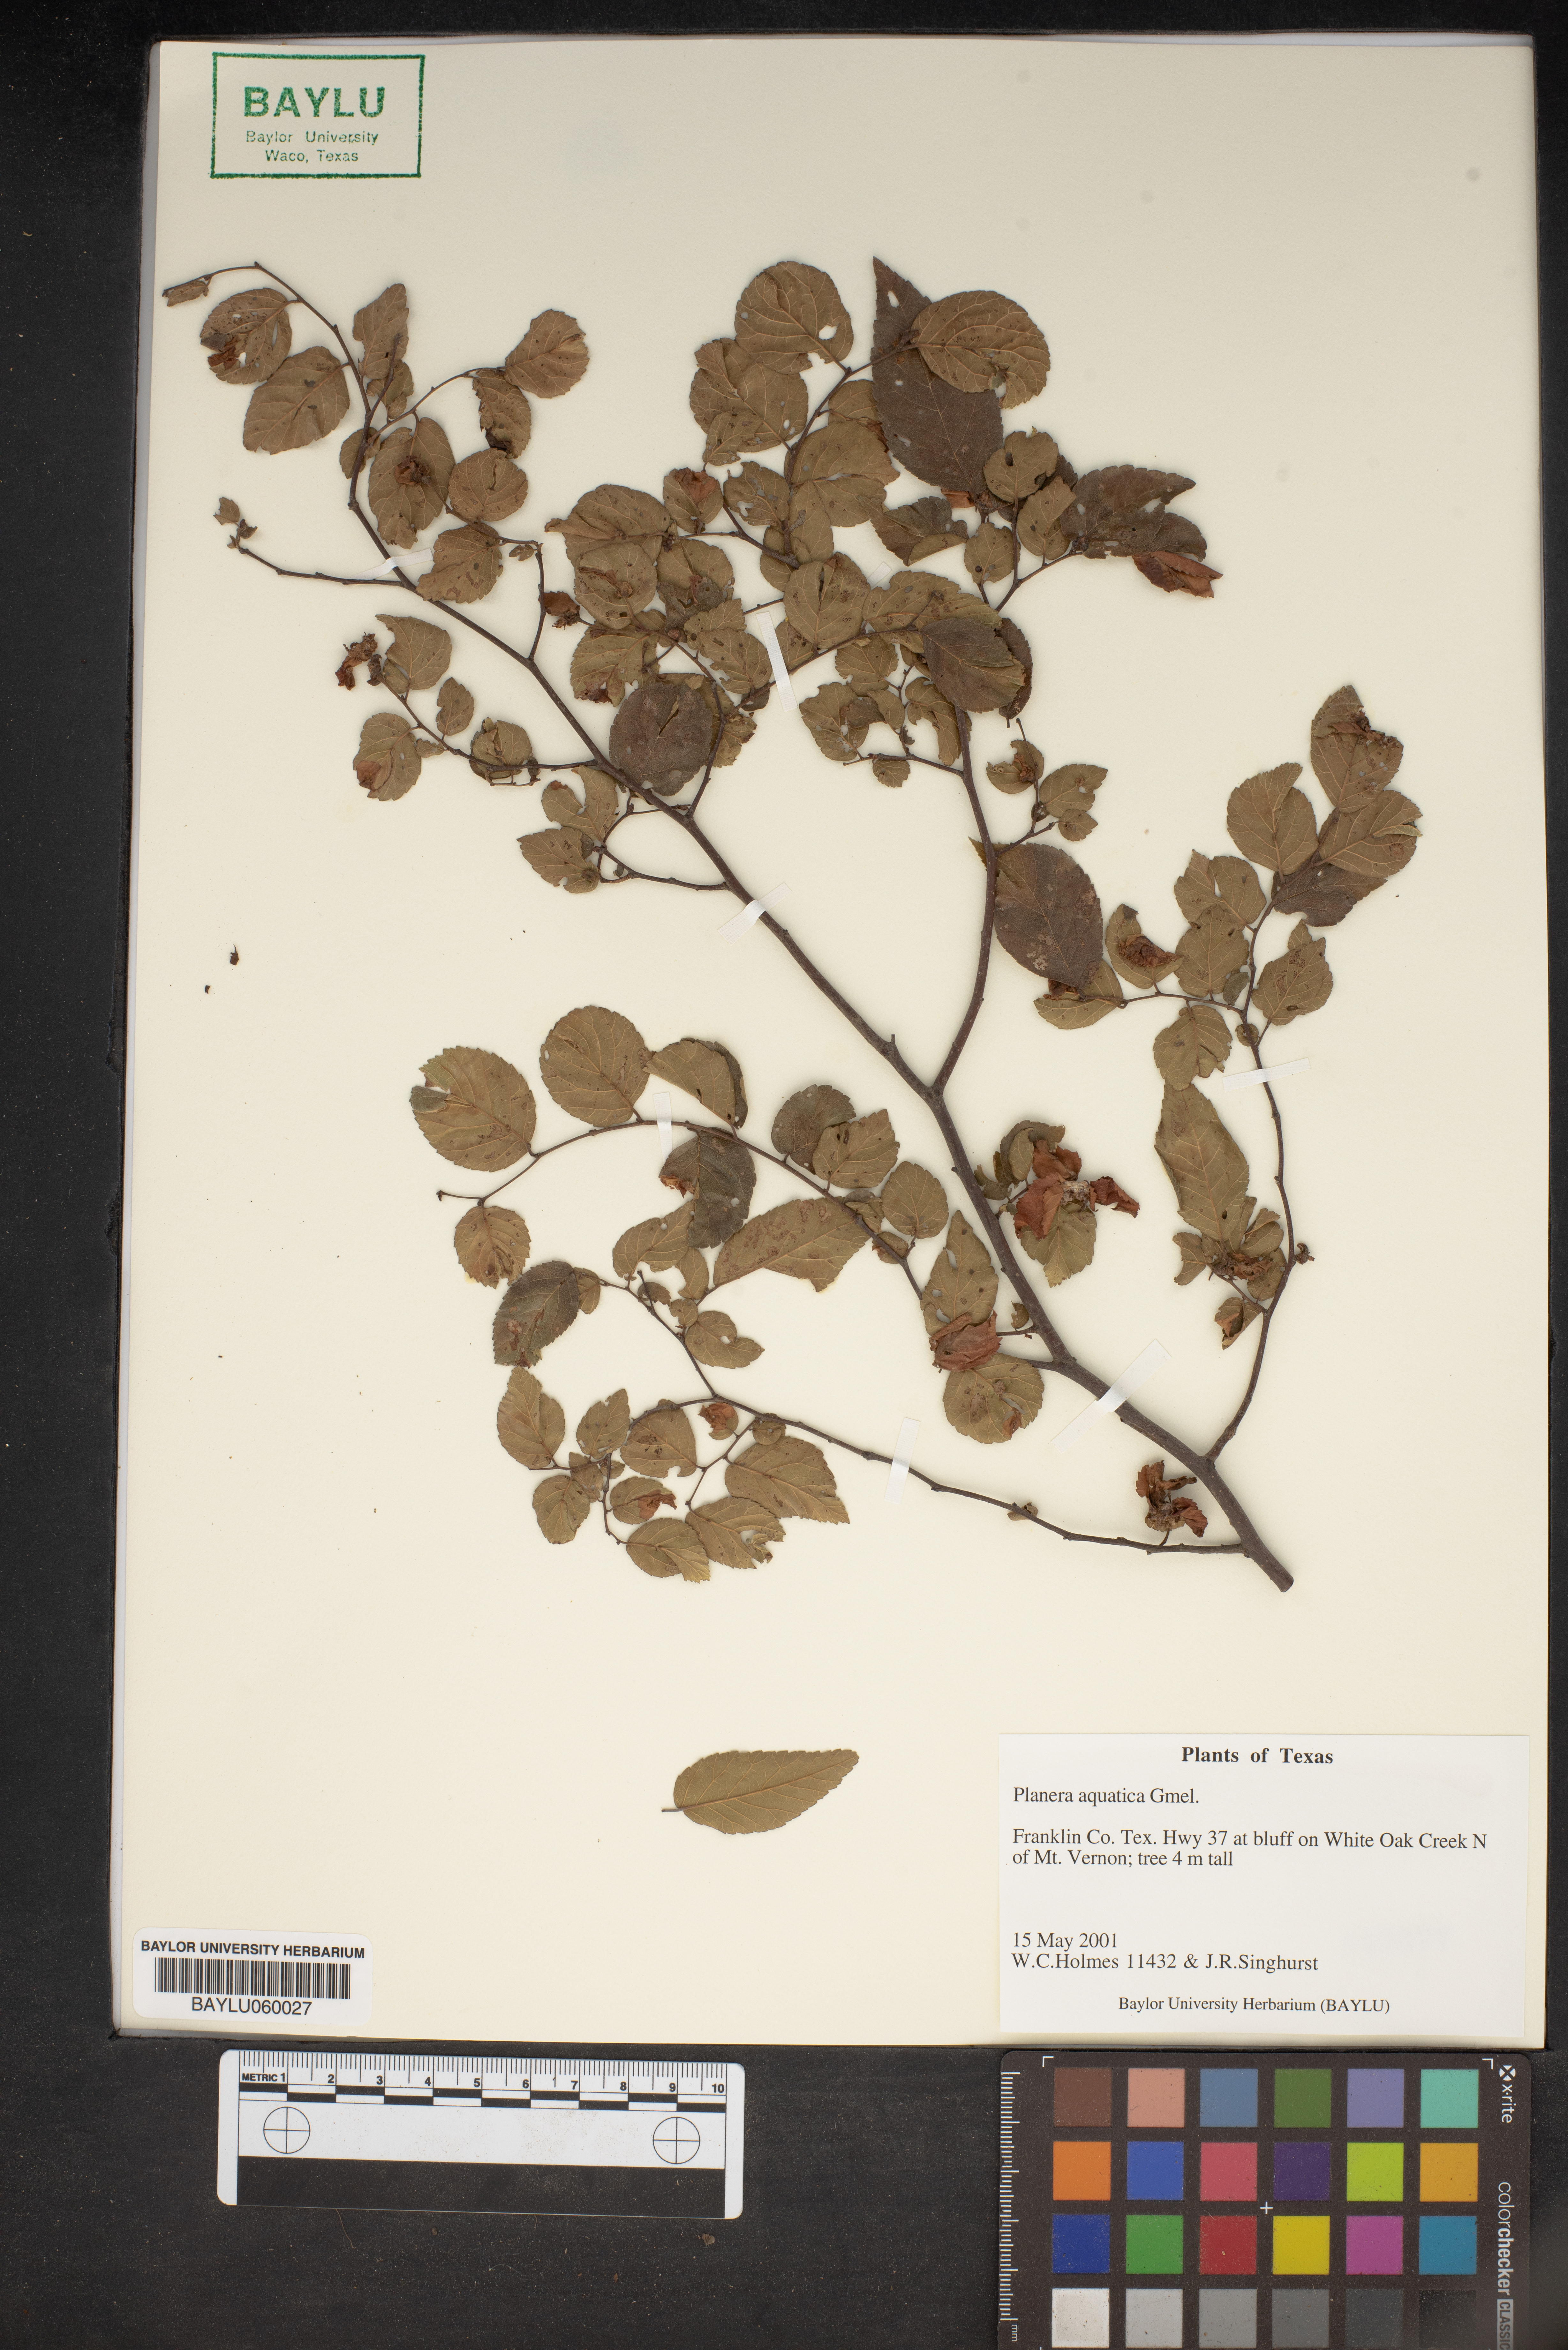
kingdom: Plantae
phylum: Tracheophyta
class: Magnoliopsida
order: Rosales
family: Ulmaceae
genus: Planera
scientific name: Planera aquatica
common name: Water-elm
